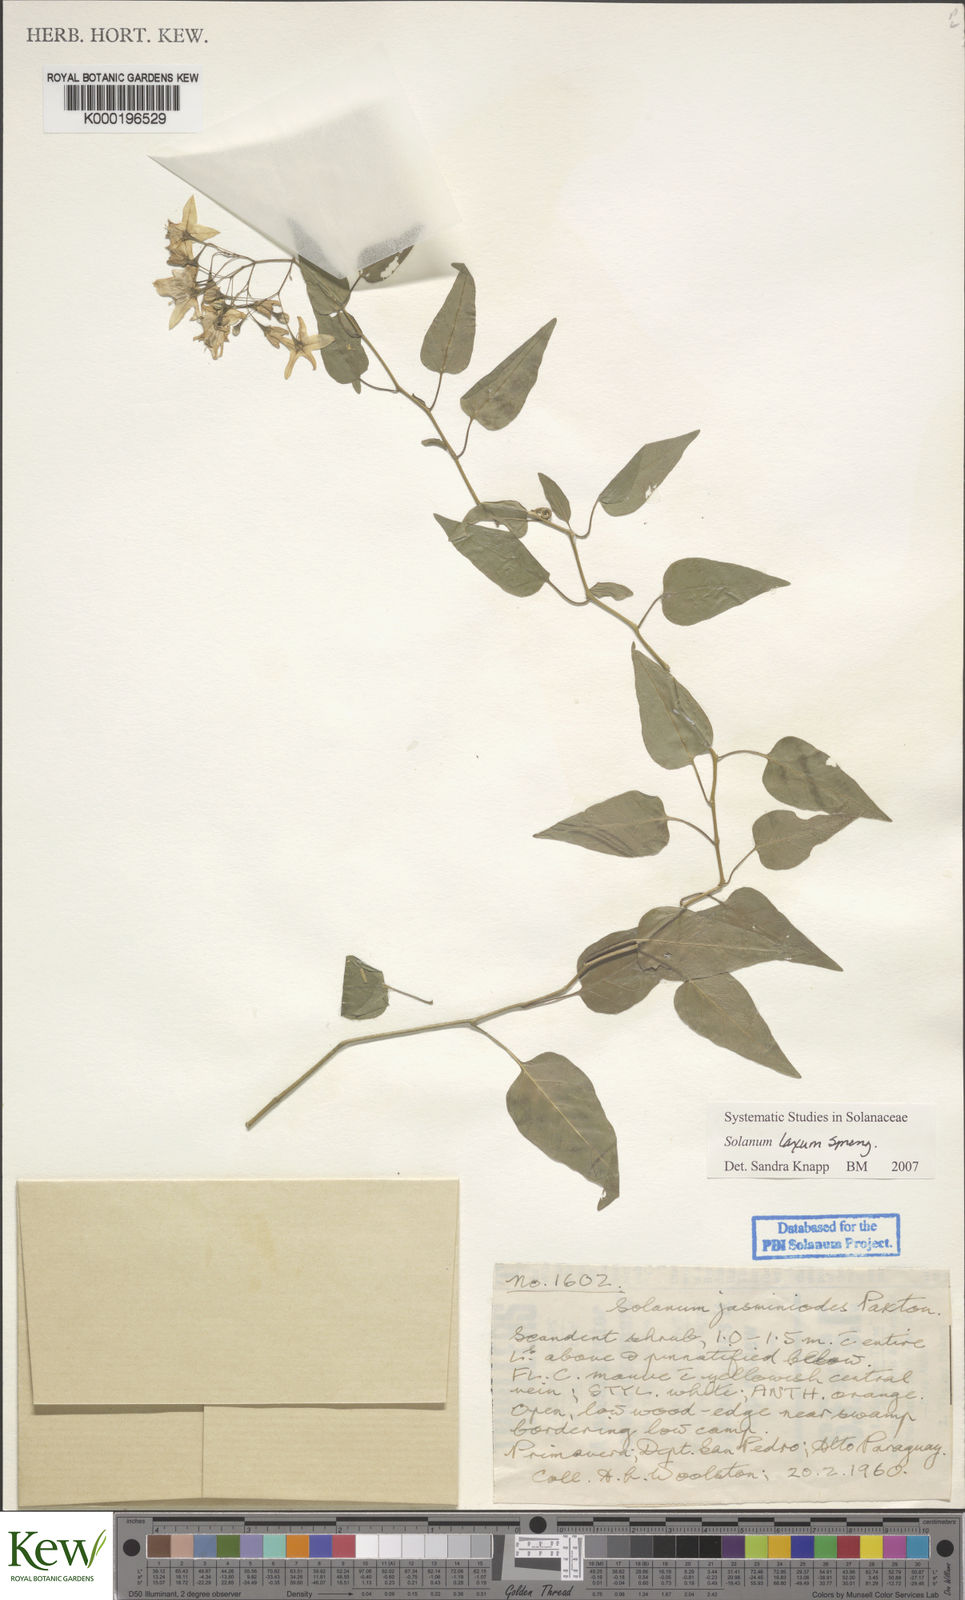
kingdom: Plantae
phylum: Tracheophyta
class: Magnoliopsida
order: Solanales
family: Solanaceae
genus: Solanum
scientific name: Solanum laxum
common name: Nightshade
